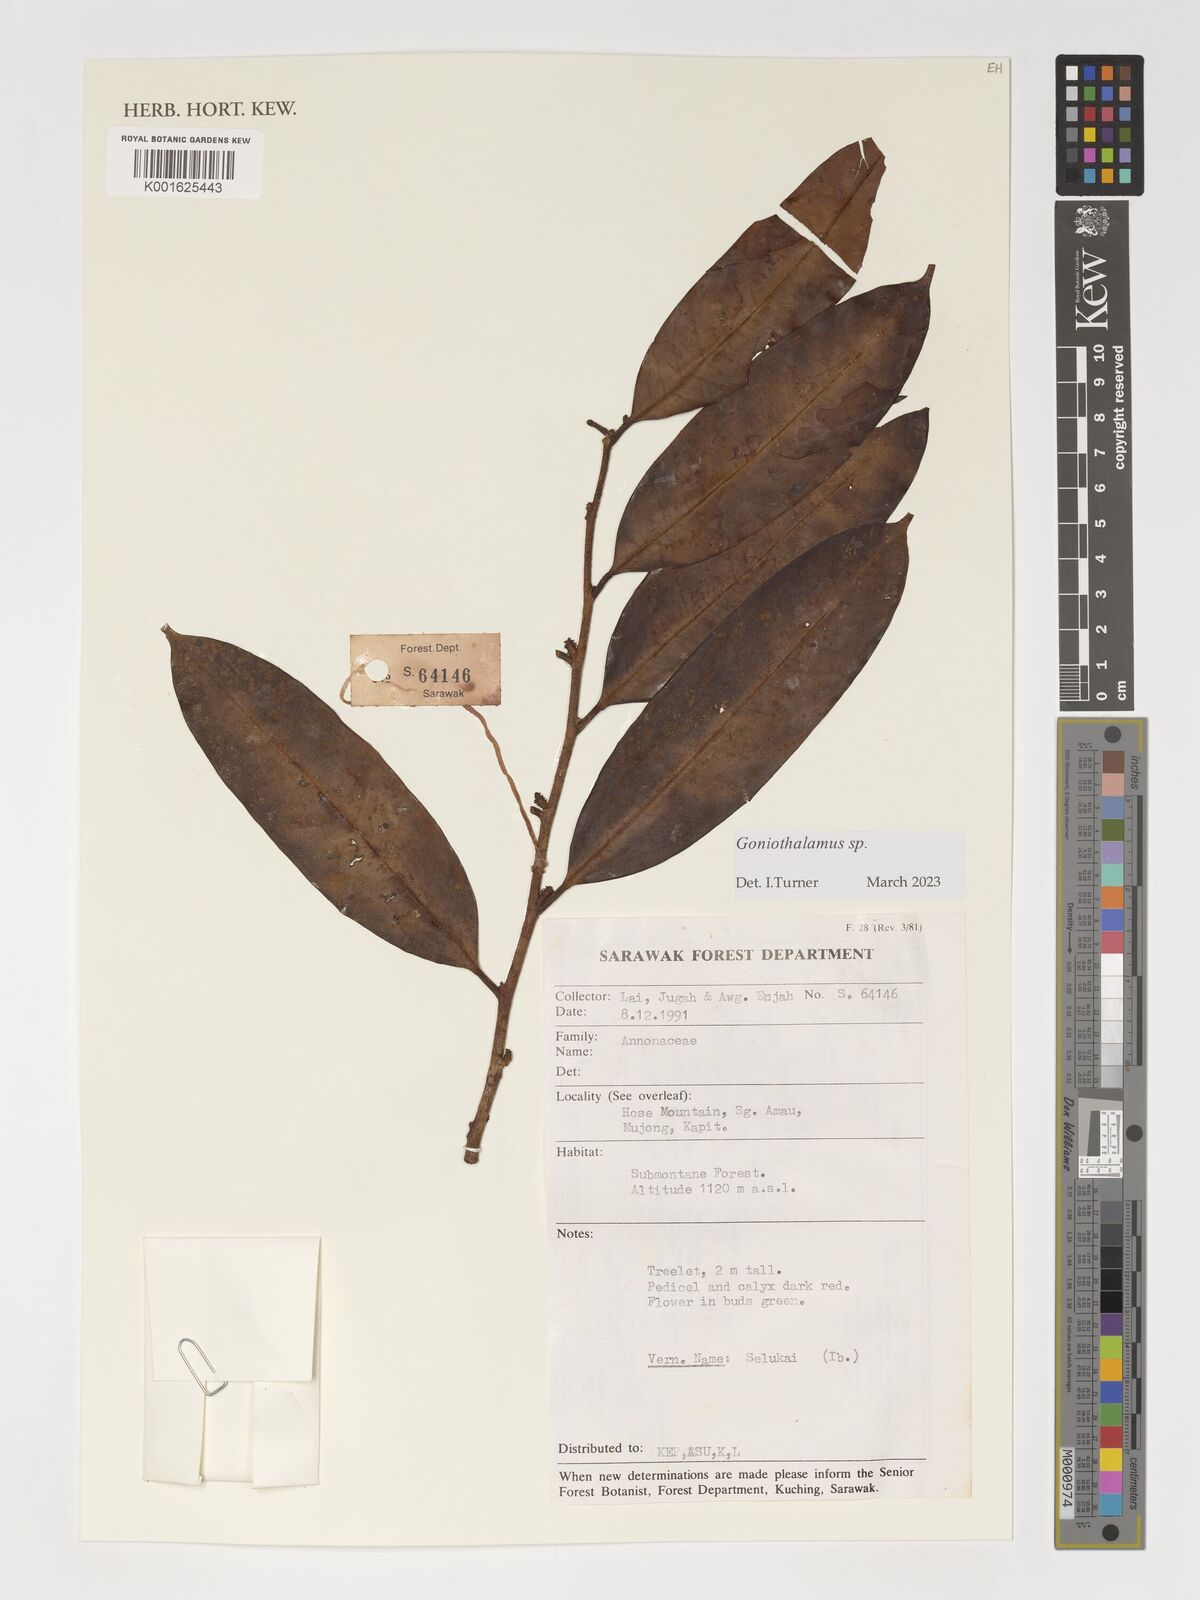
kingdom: Plantae
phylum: Tracheophyta
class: Magnoliopsida
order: Magnoliales
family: Annonaceae
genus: Goniothalamus
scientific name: Goniothalamus
